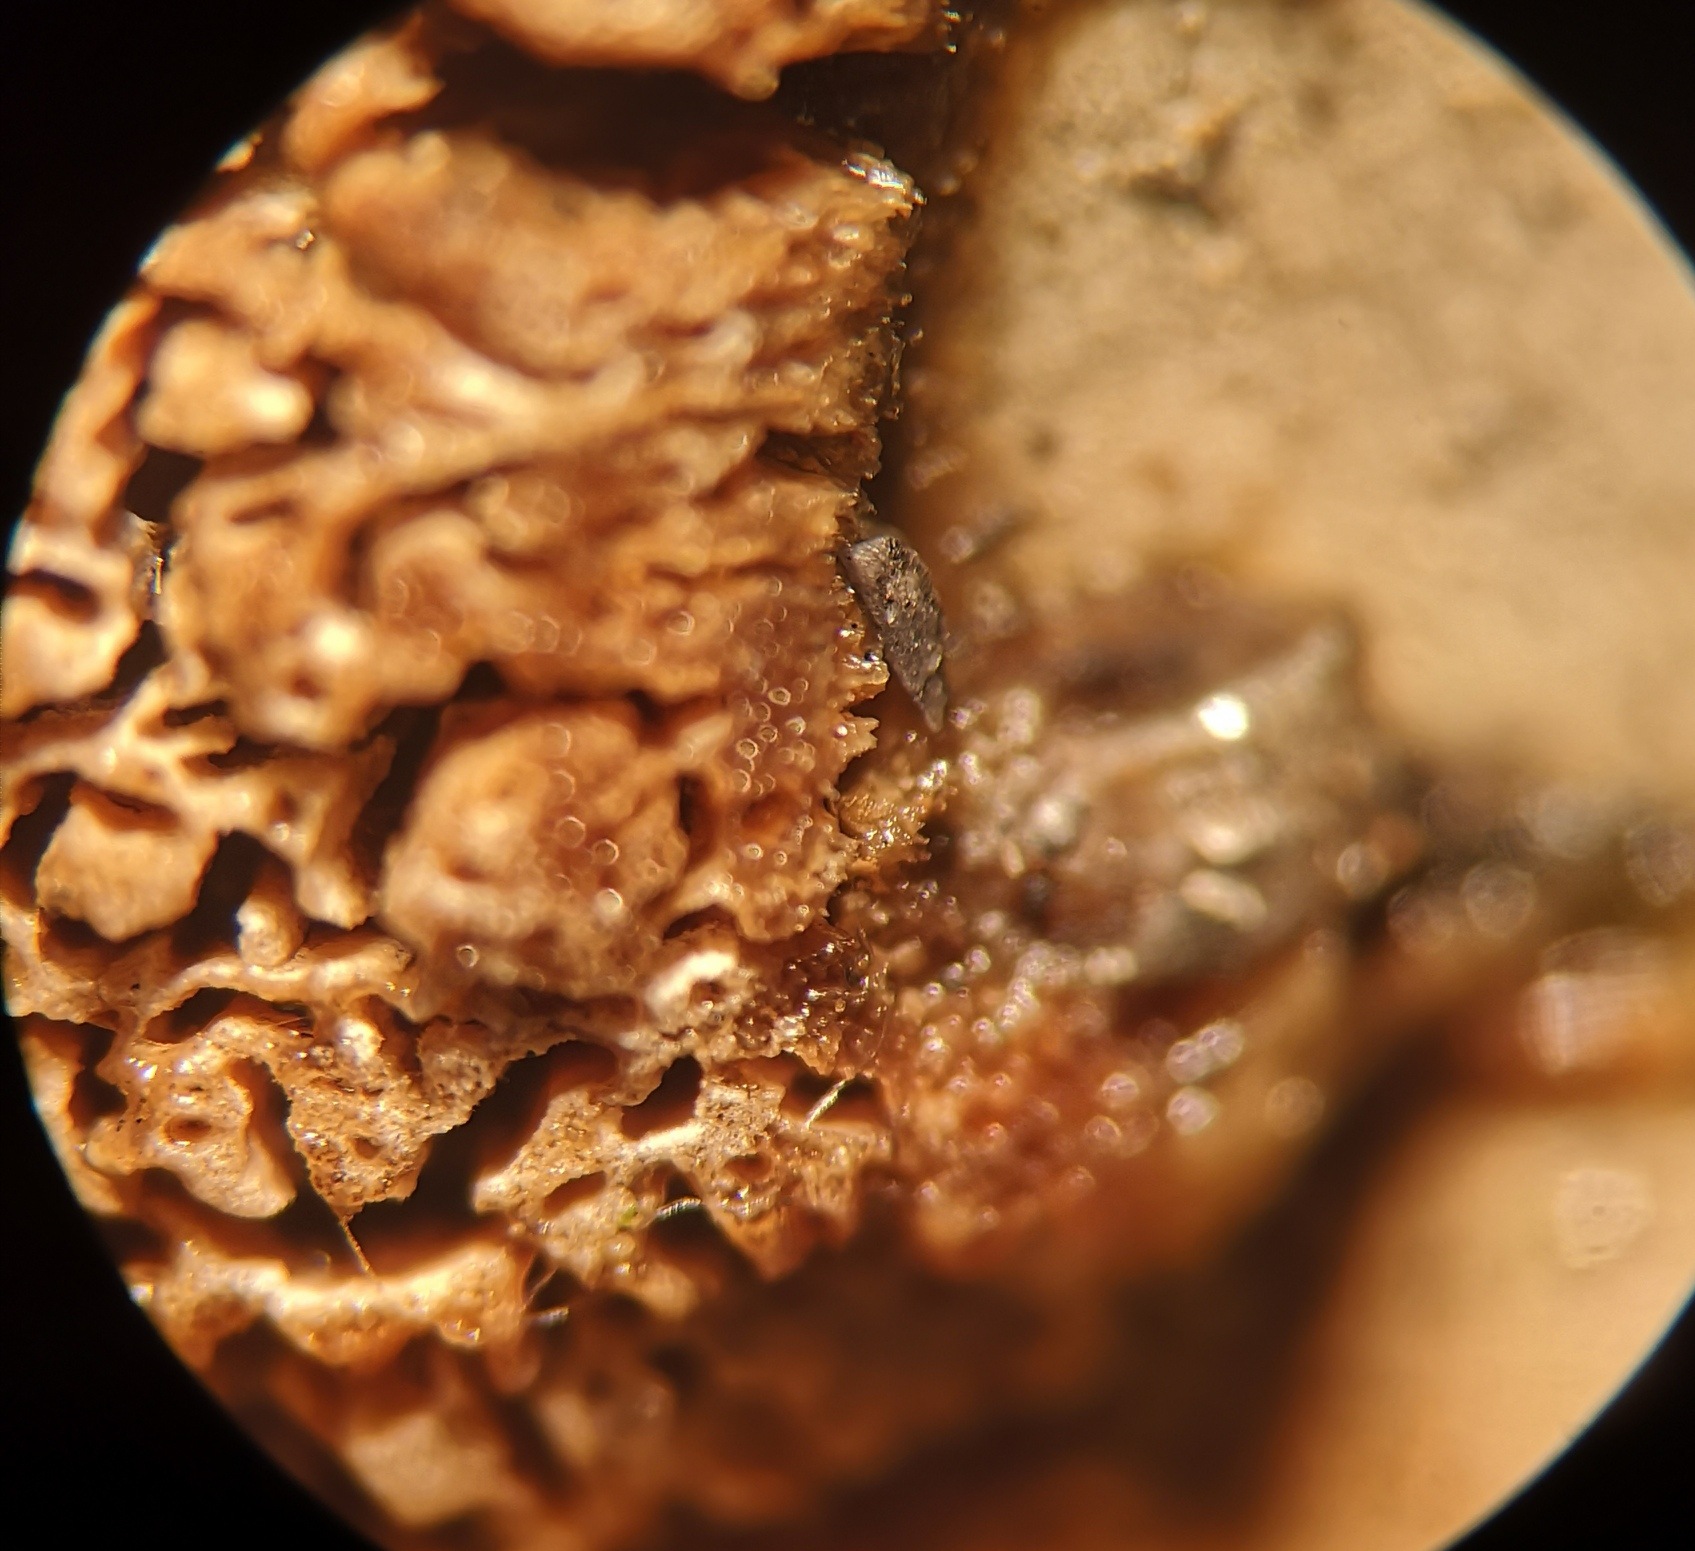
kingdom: Fungi
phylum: Basidiomycota
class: Agaricomycetes
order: Polyporales
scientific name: Polyporales
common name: poresvampordenen
